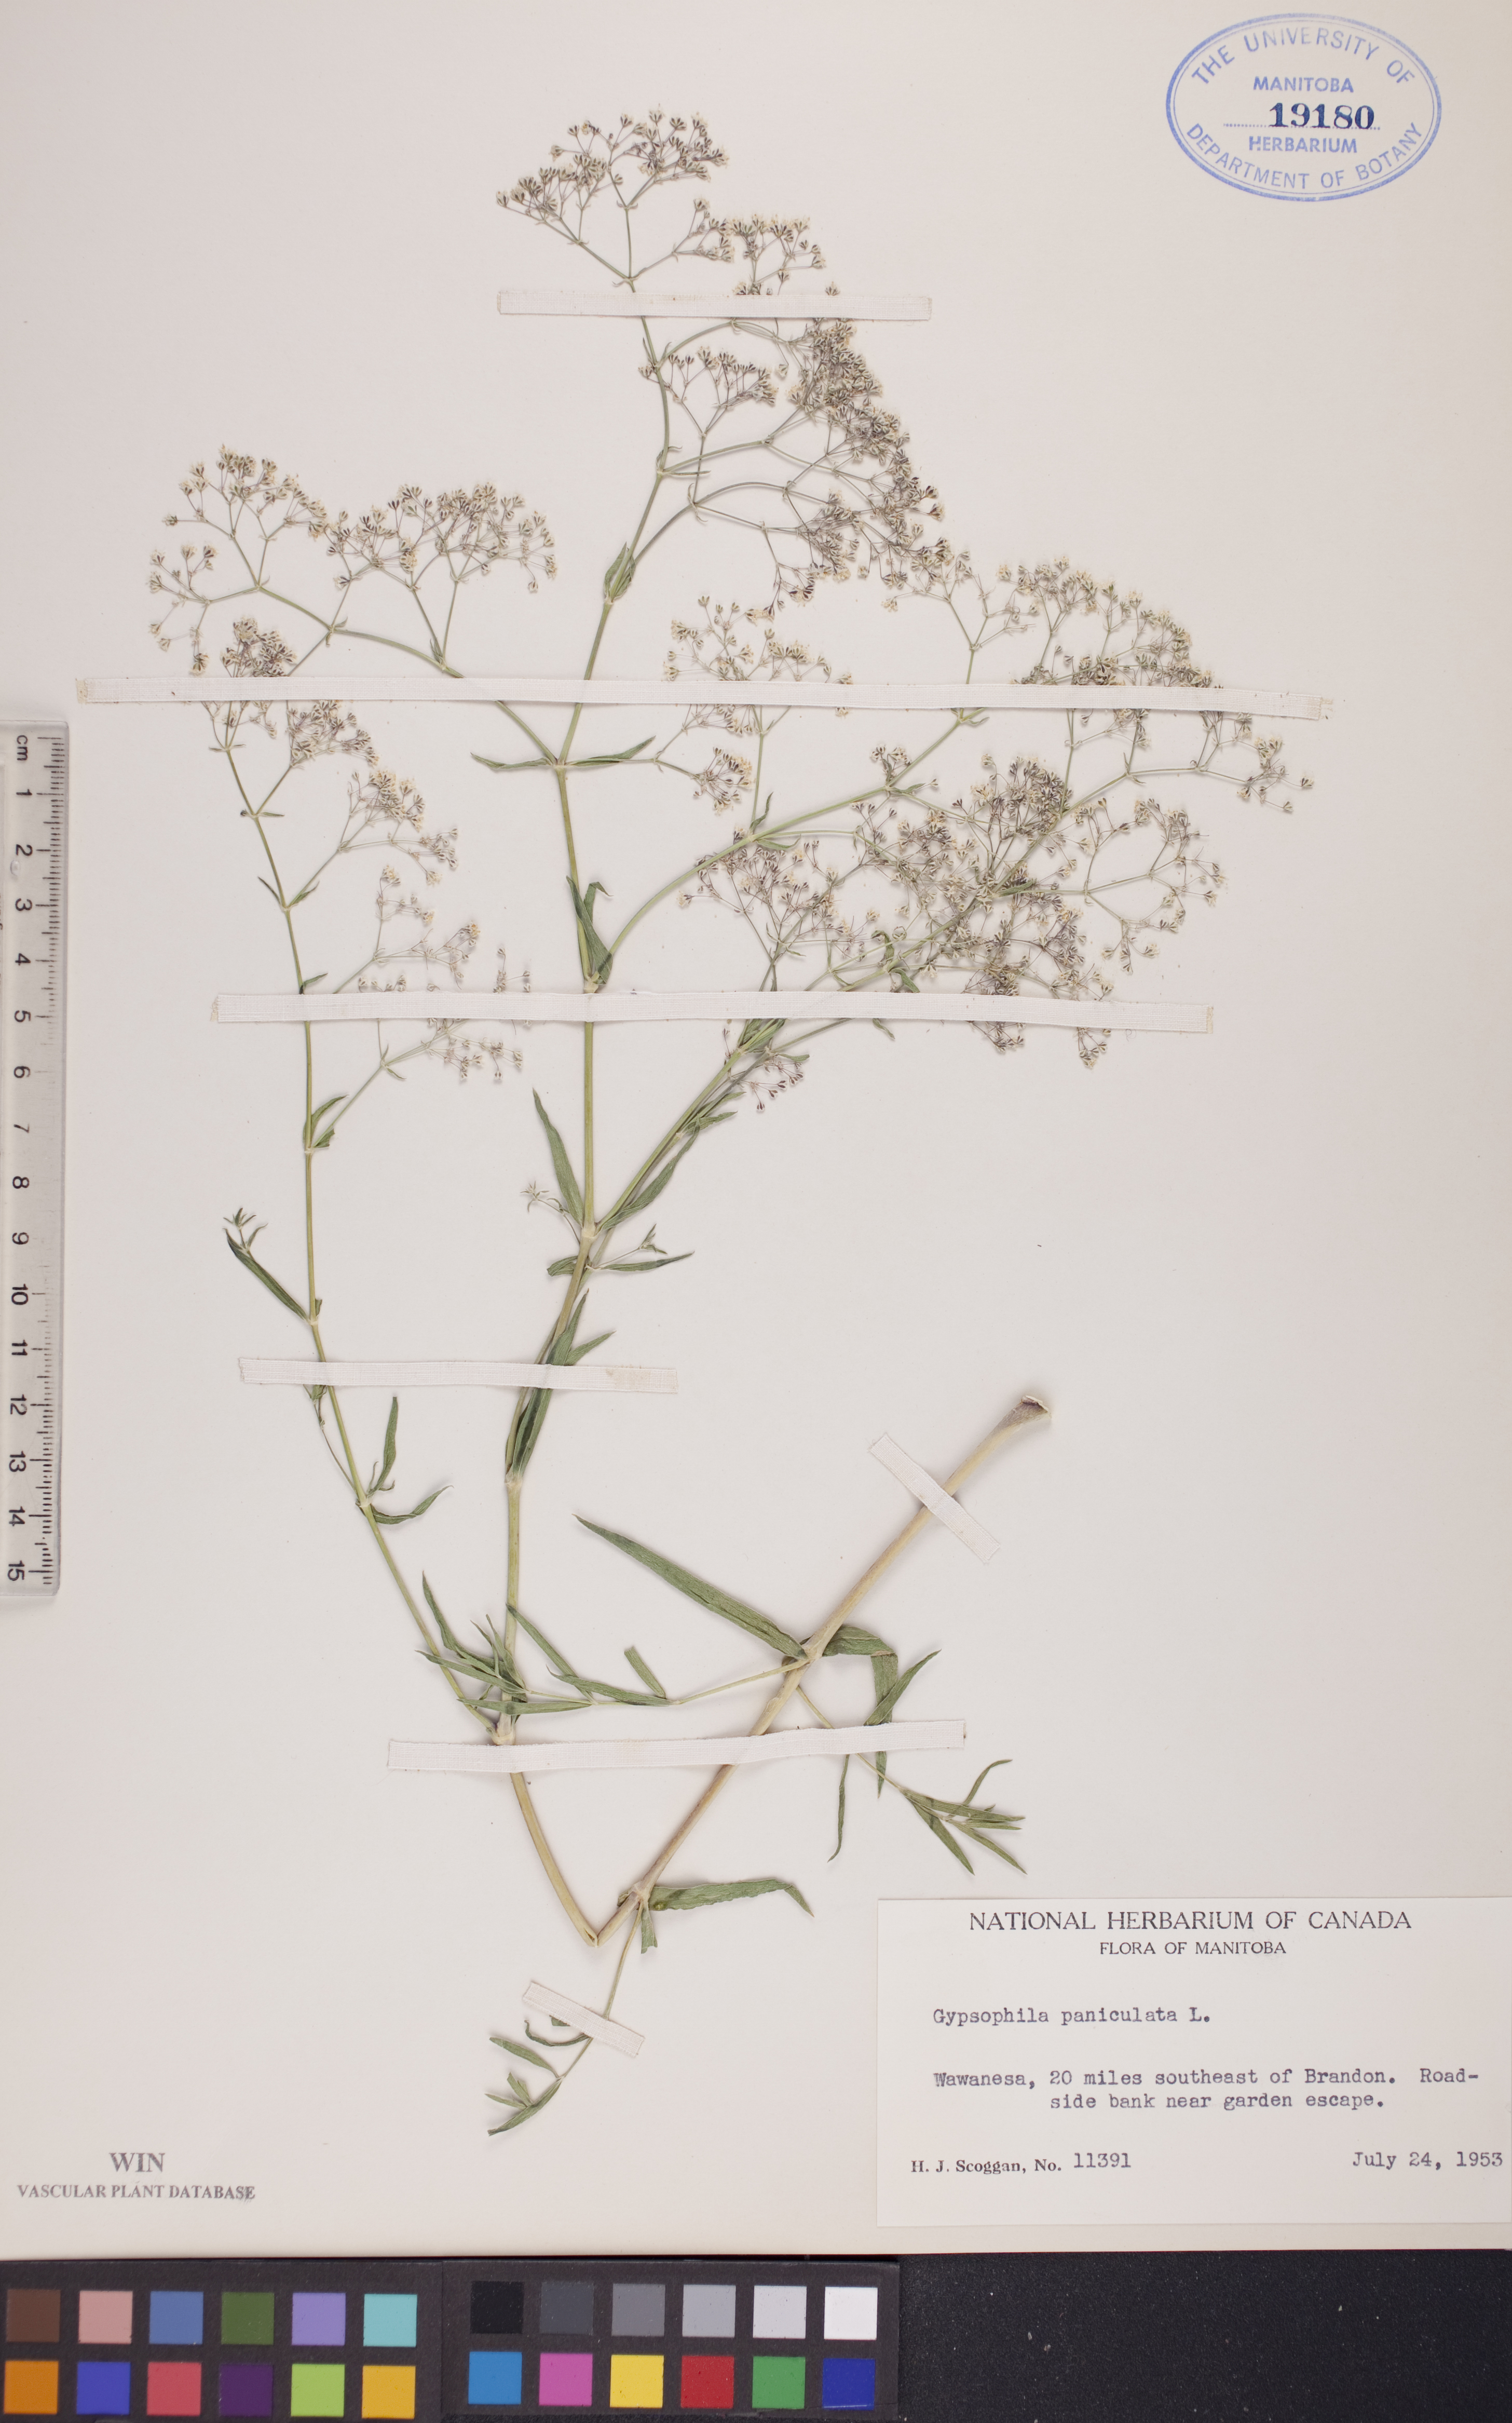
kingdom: Plantae
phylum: Tracheophyta
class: Magnoliopsida
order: Caryophyllales
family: Caryophyllaceae
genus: Gypsophila
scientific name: Gypsophila paniculata
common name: Baby's-breath
